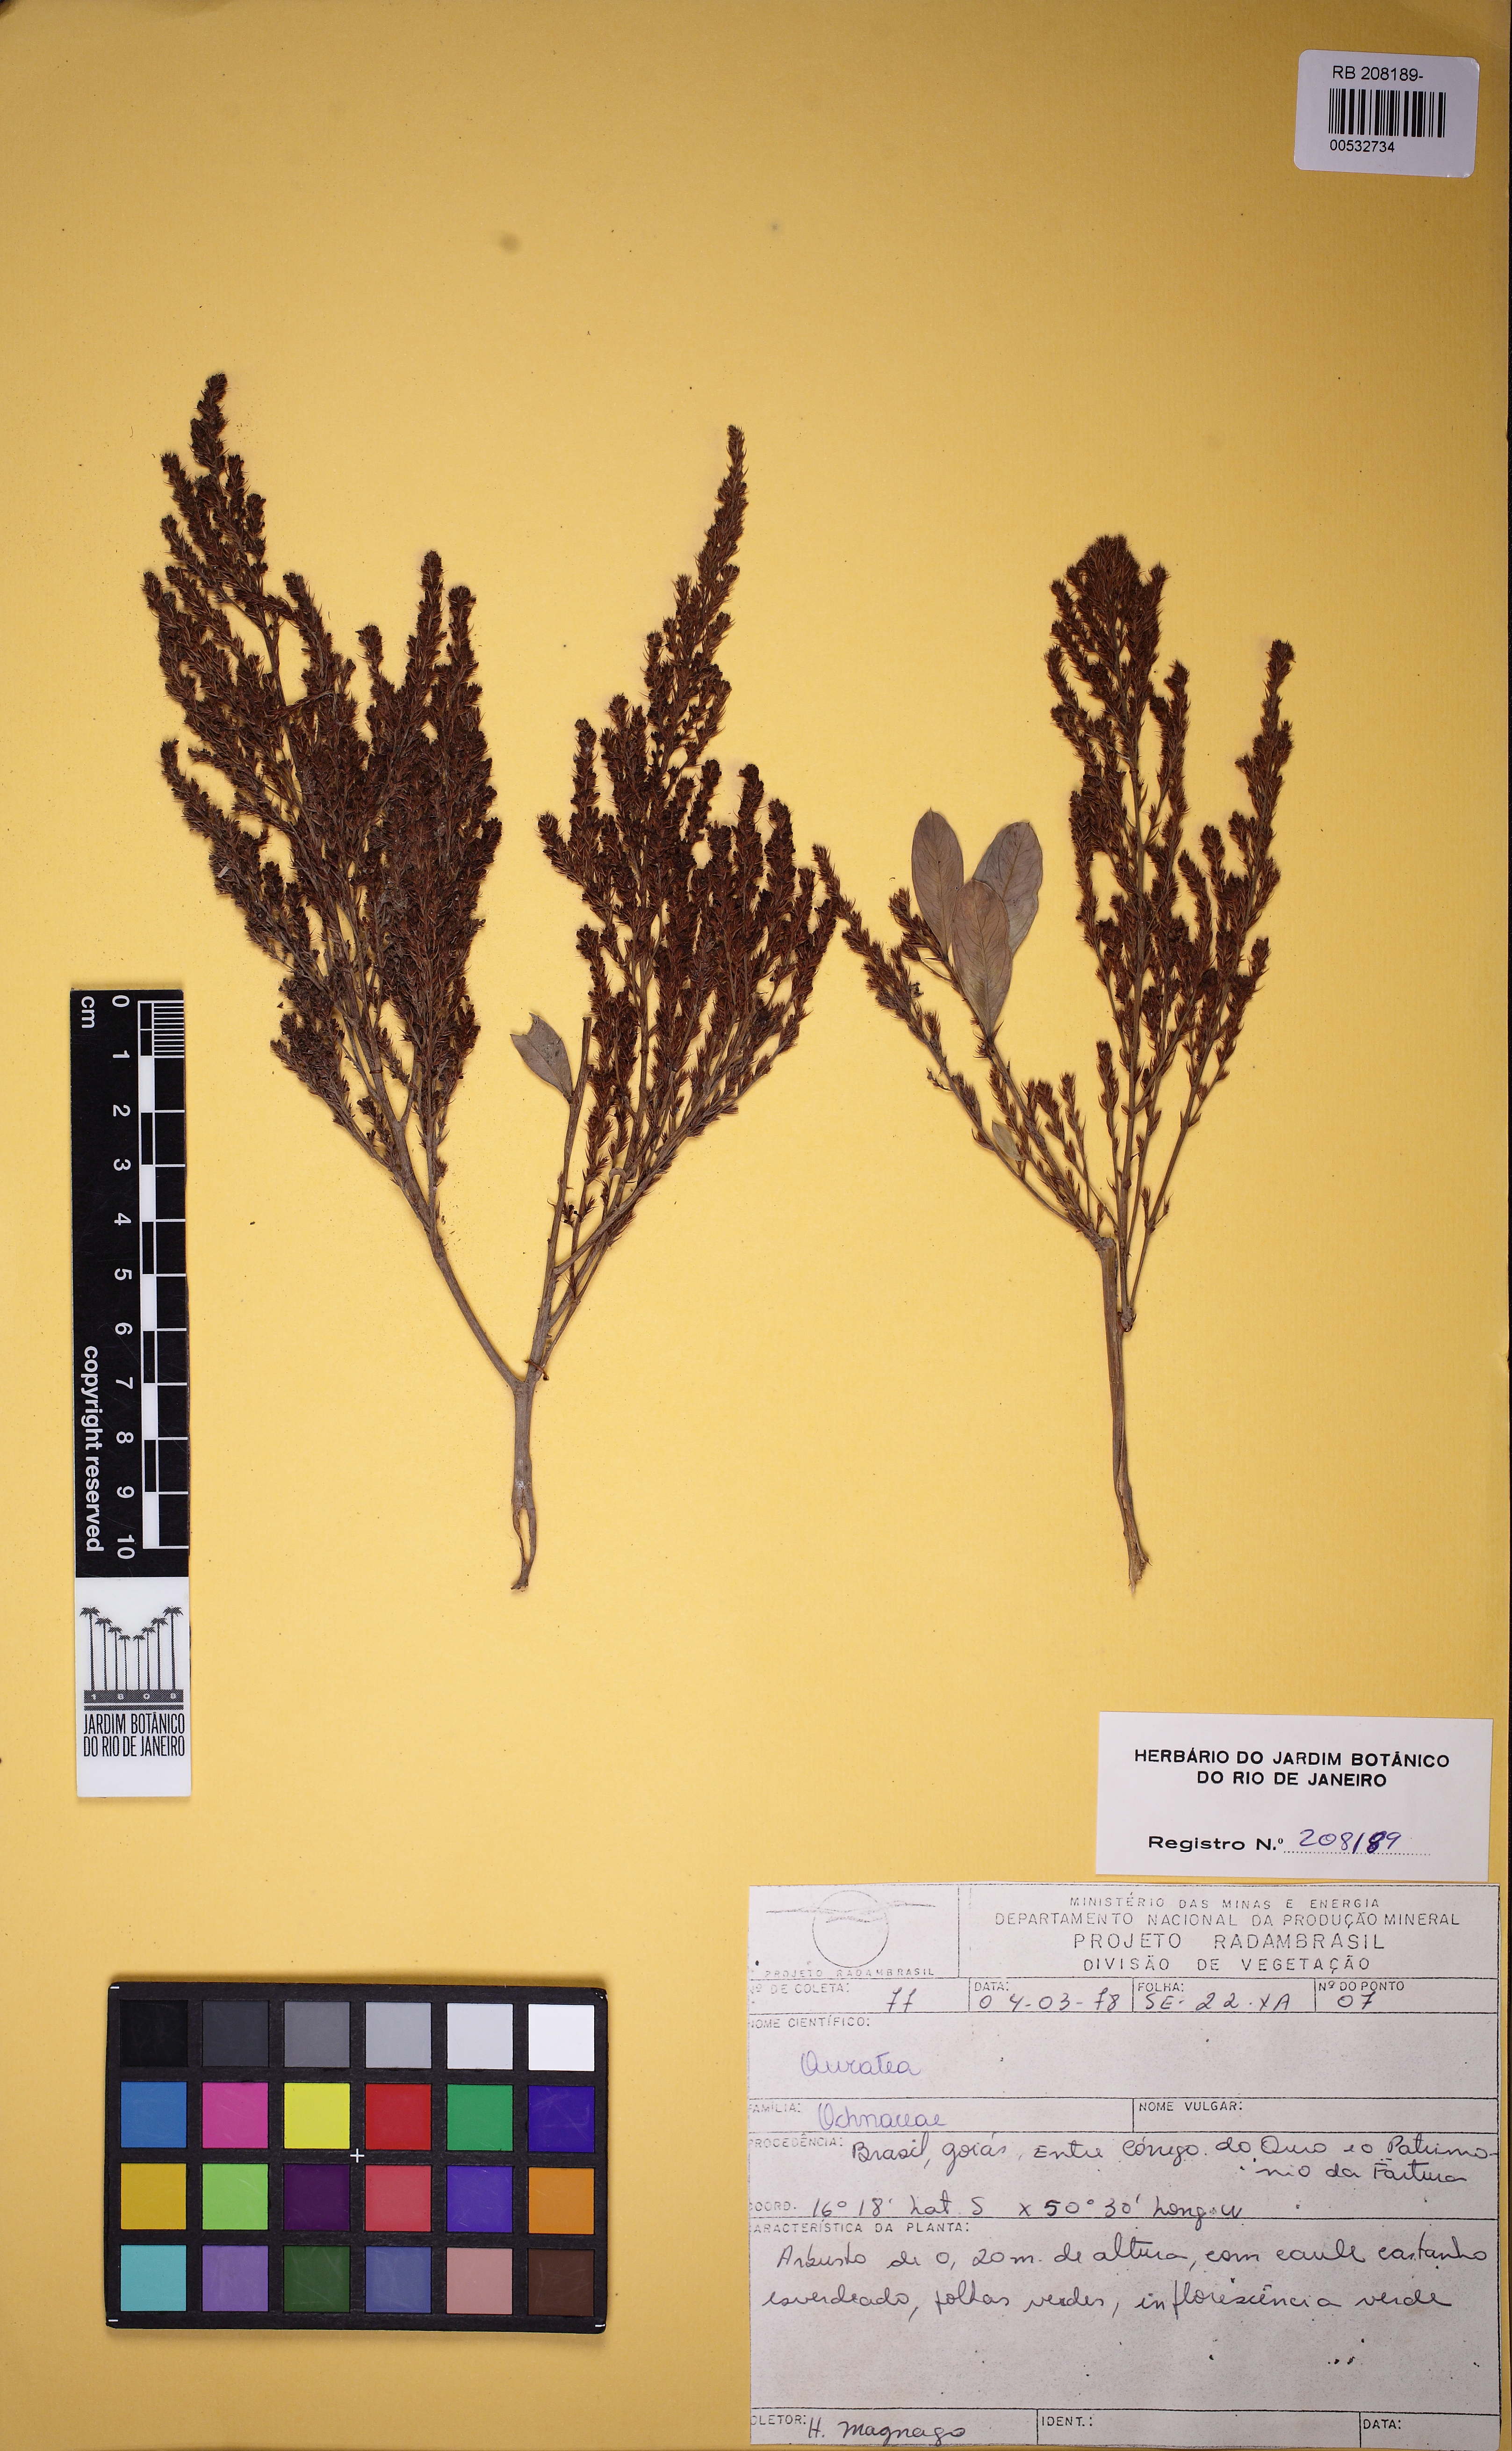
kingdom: Plantae
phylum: Tracheophyta
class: Magnoliopsida
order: Malpighiales
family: Ochnaceae
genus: Ouratea
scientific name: Ouratea
